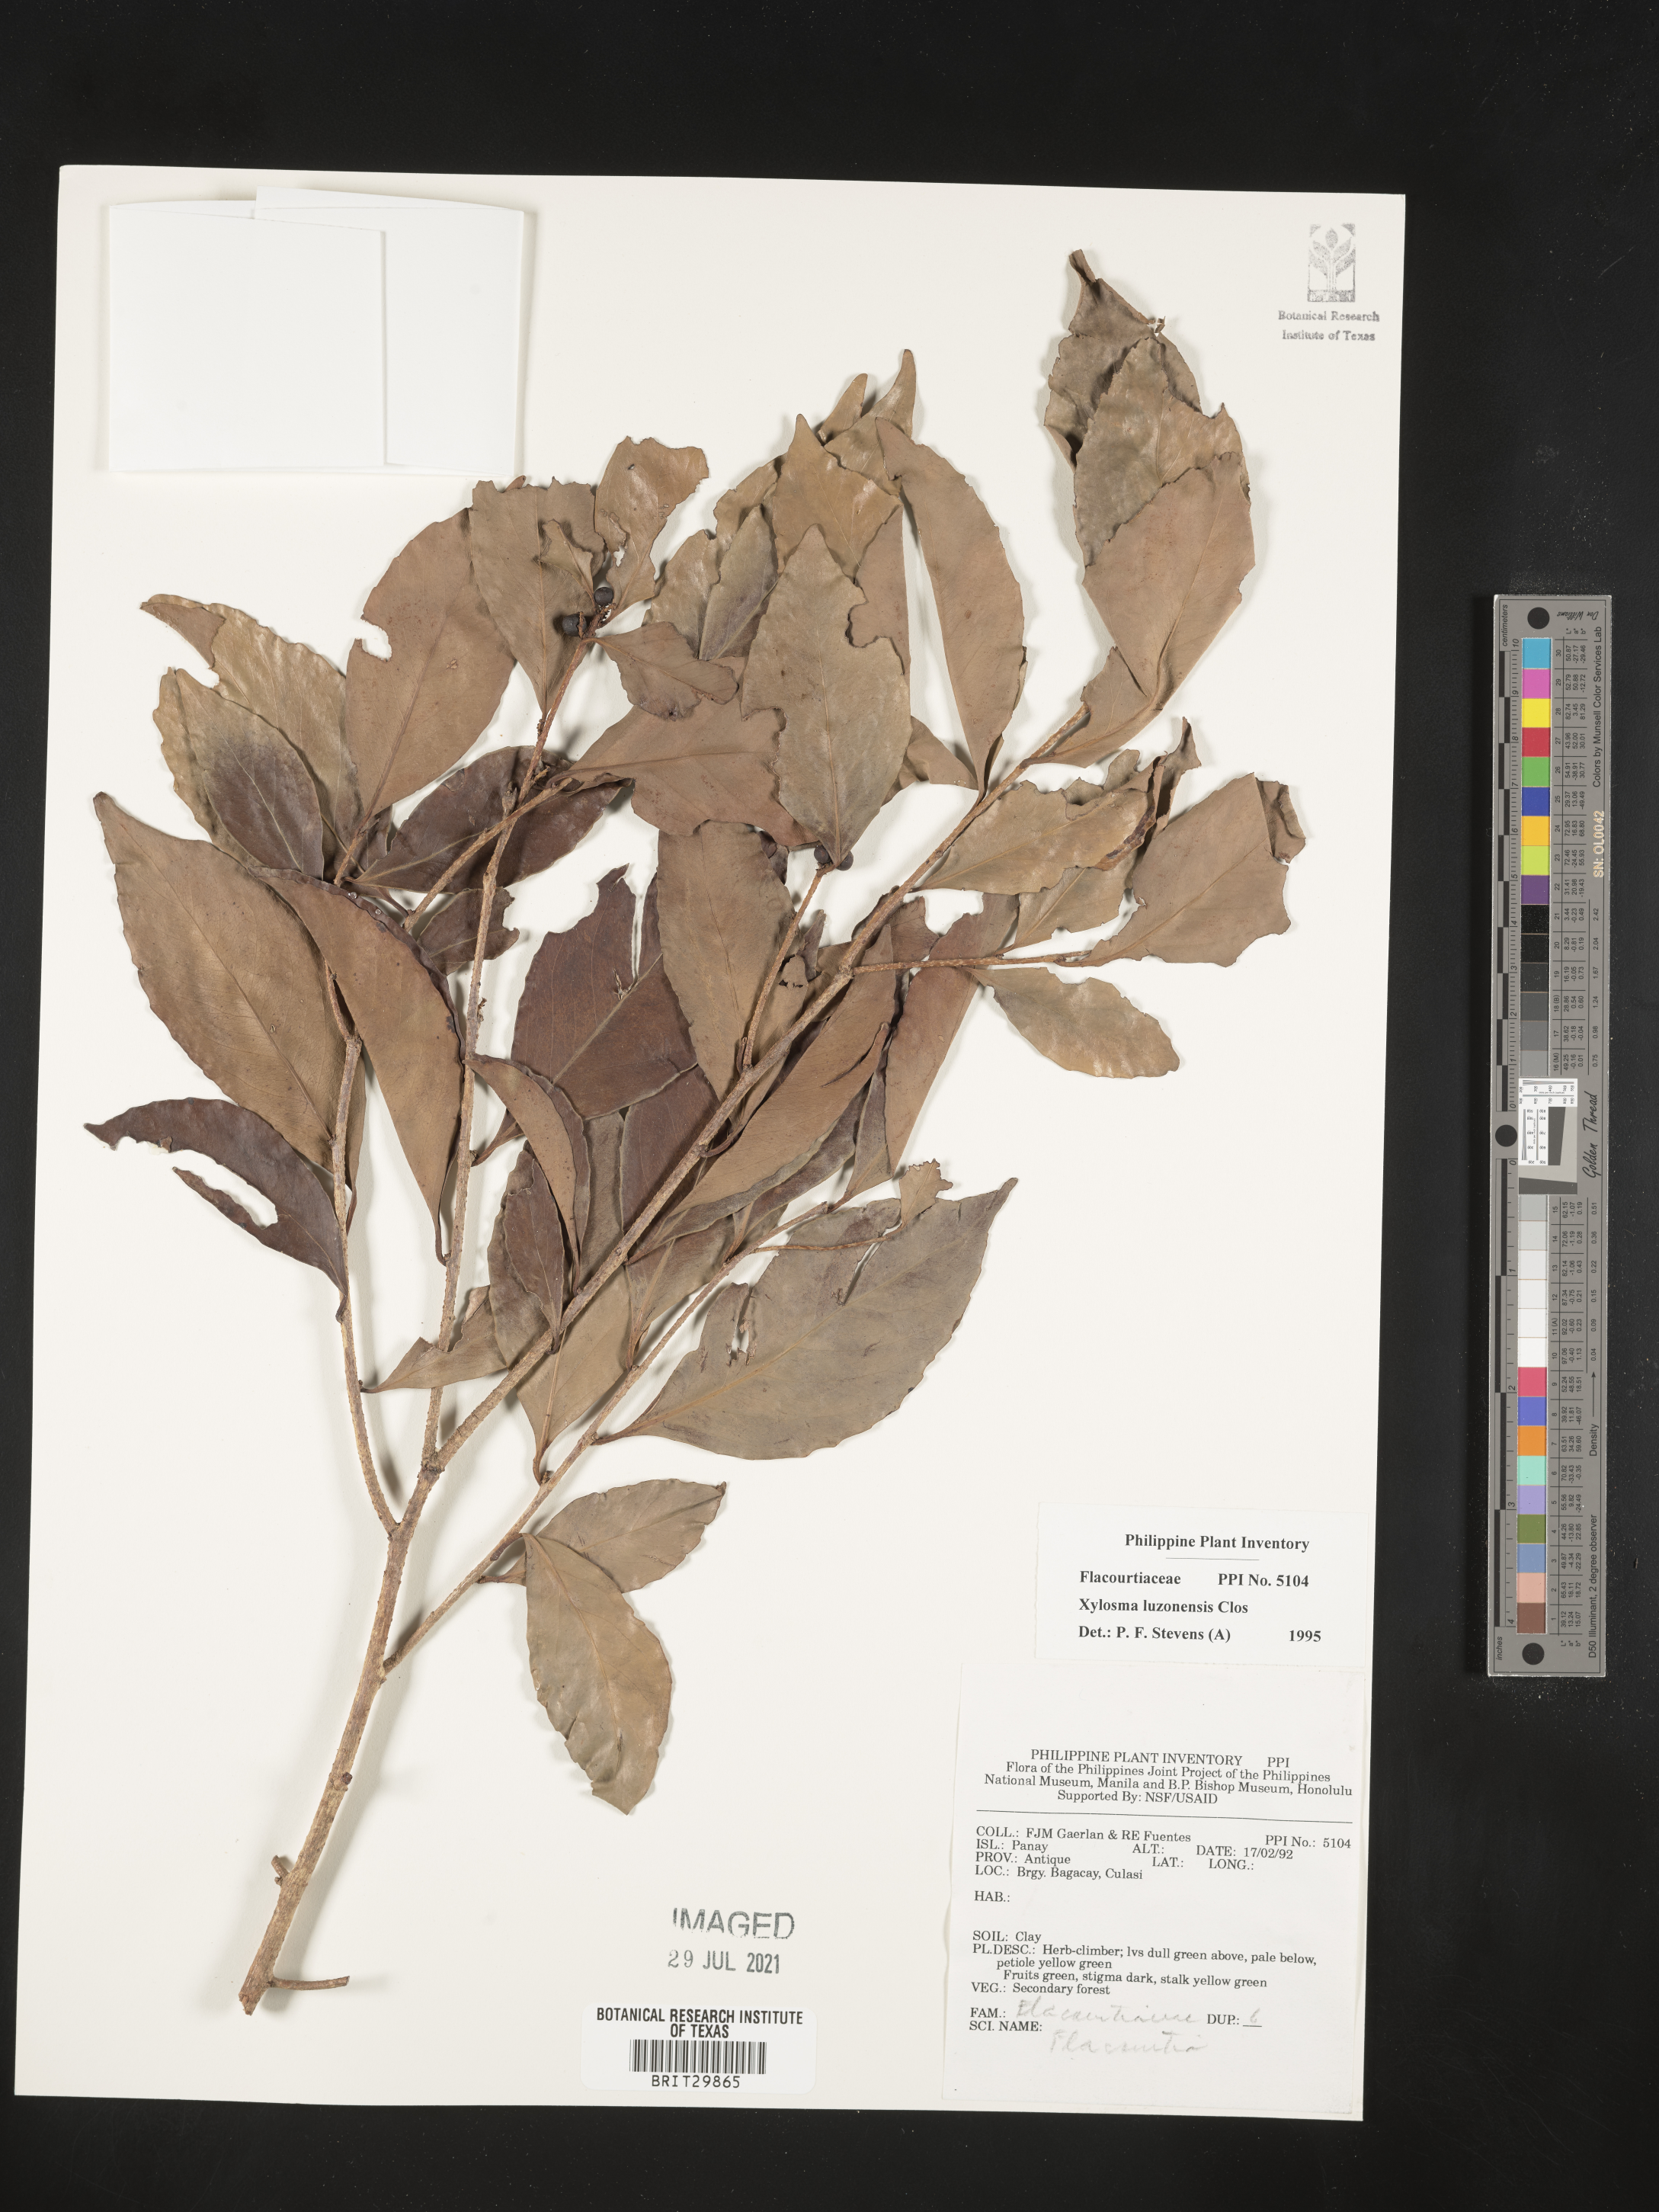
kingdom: Plantae
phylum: Tracheophyta
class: Magnoliopsida
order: Malpighiales
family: Salicaceae
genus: Xylosma
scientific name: Xylosma luzonensis
